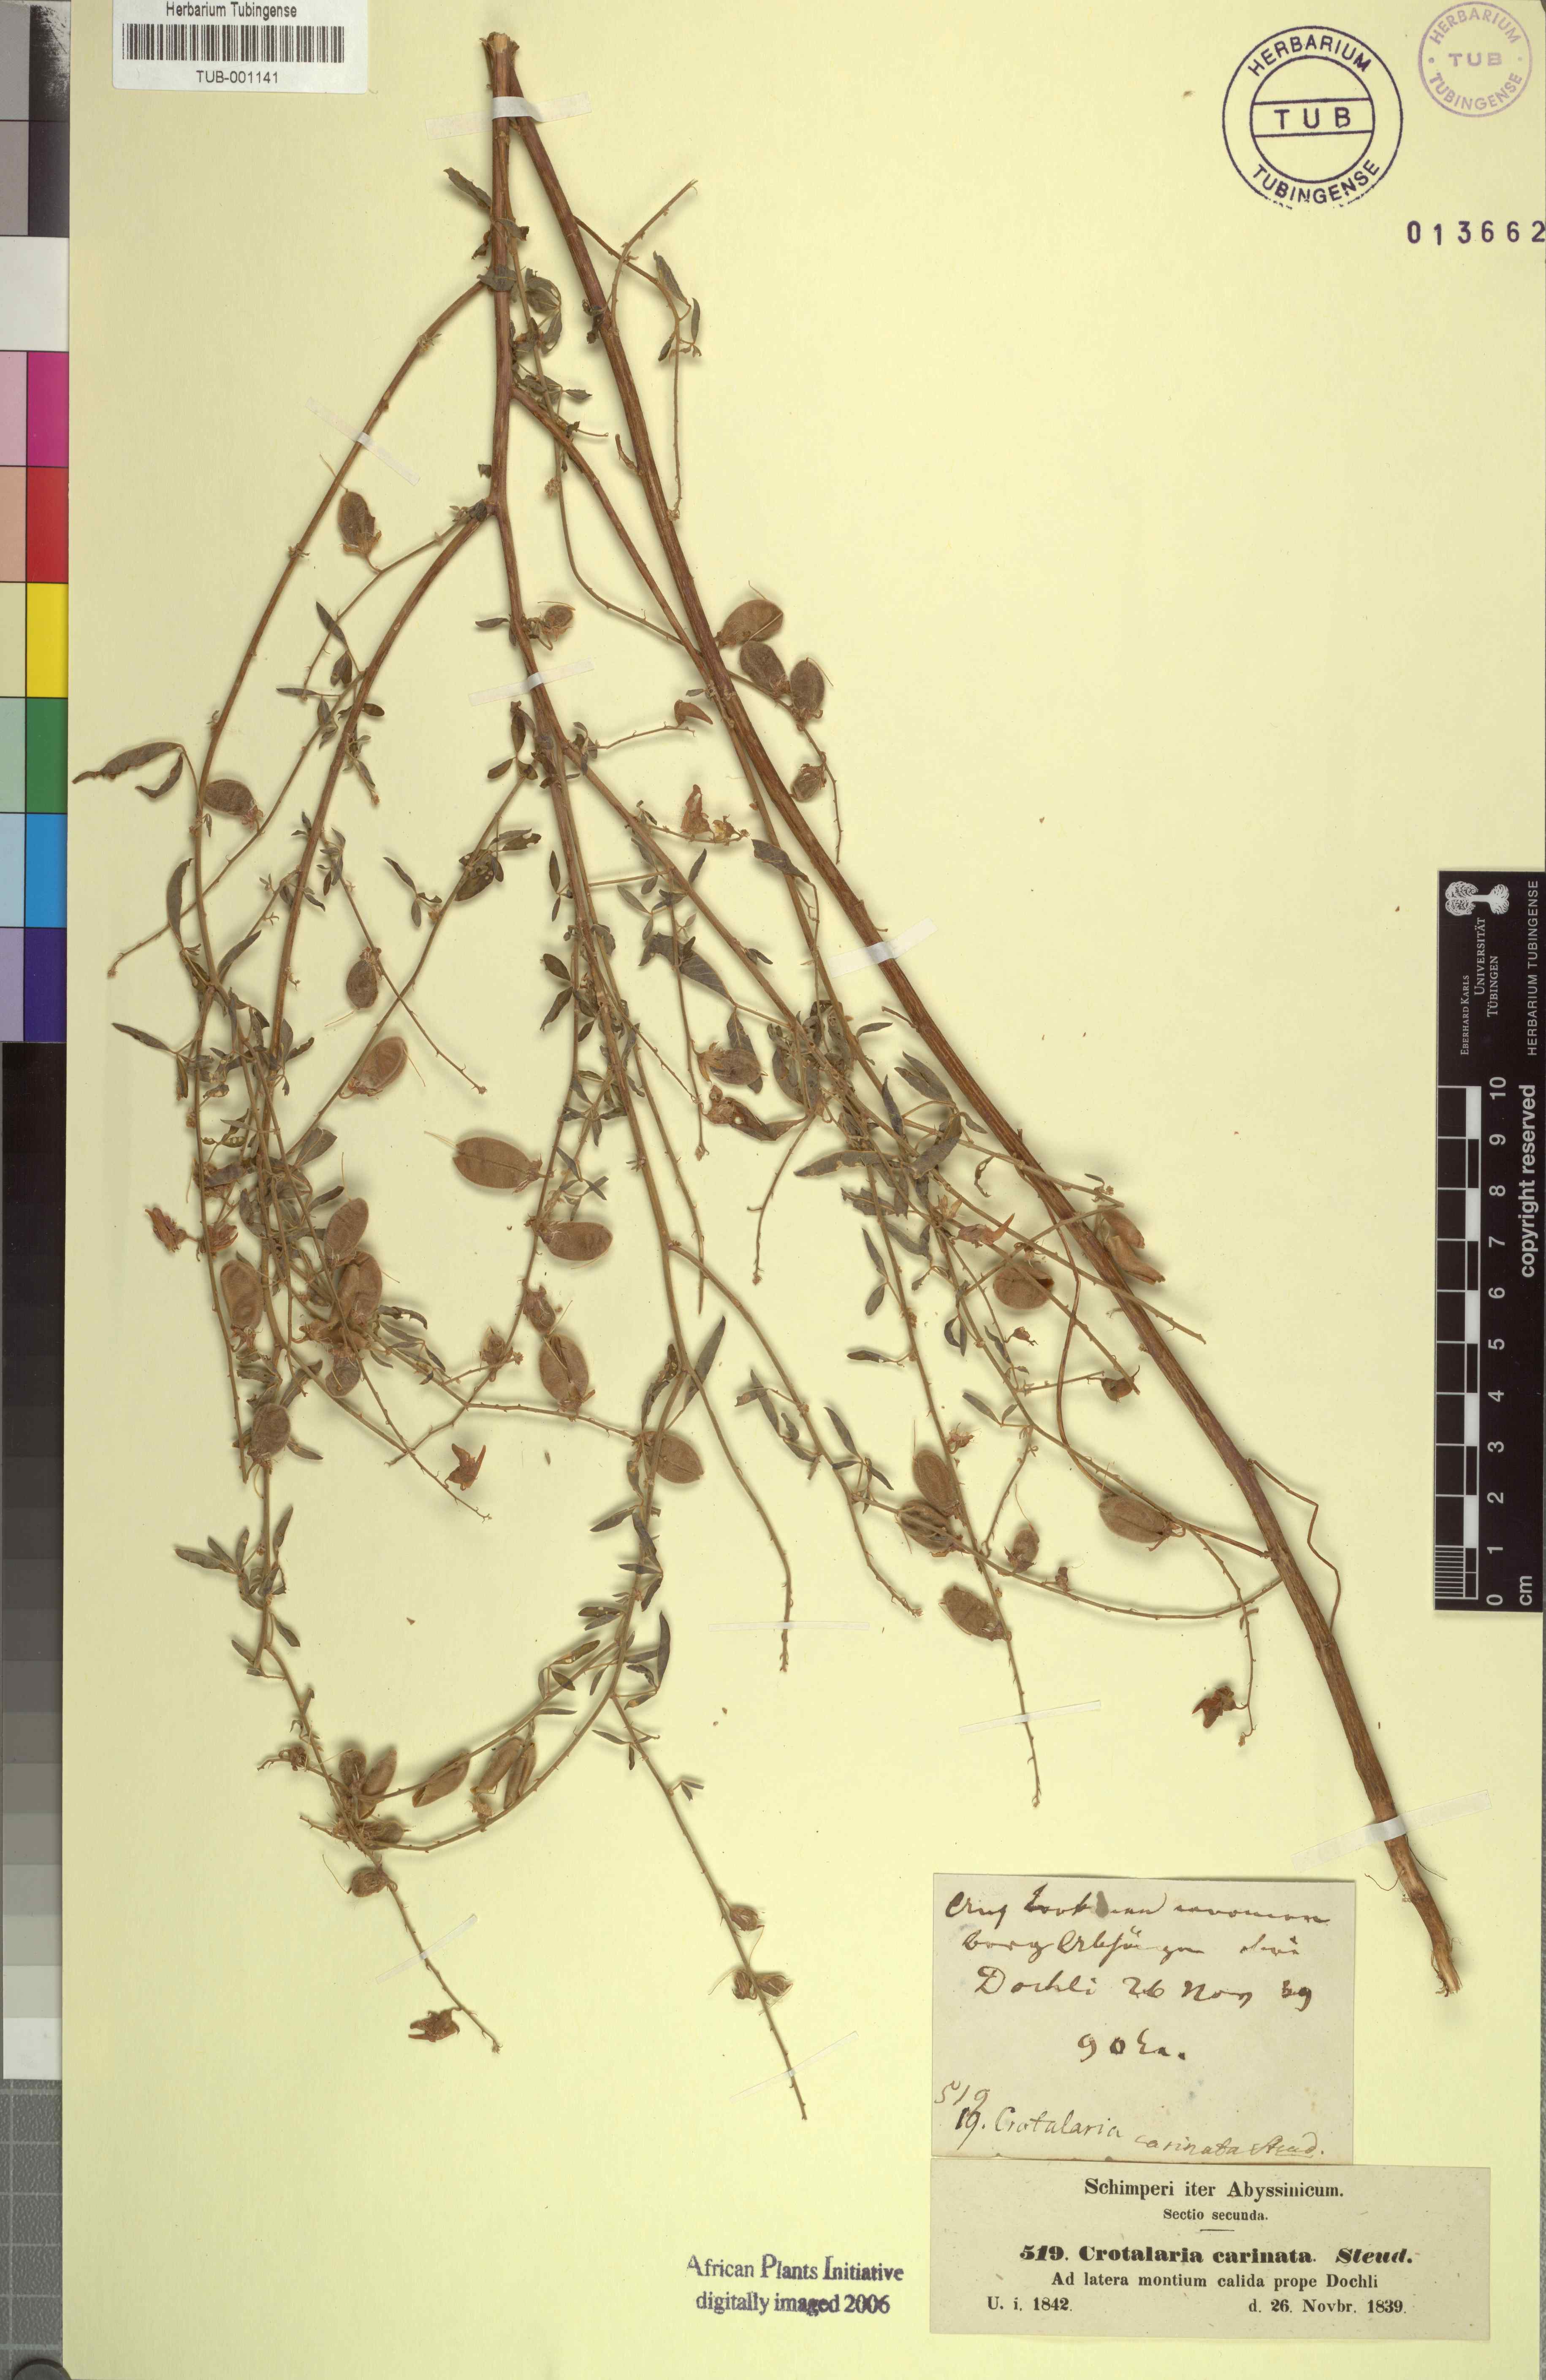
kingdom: Plantae
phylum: Tracheophyta
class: Magnoliopsida
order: Fabales
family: Fabaceae
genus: Crotalaria
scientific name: Crotalaria senegalensis
